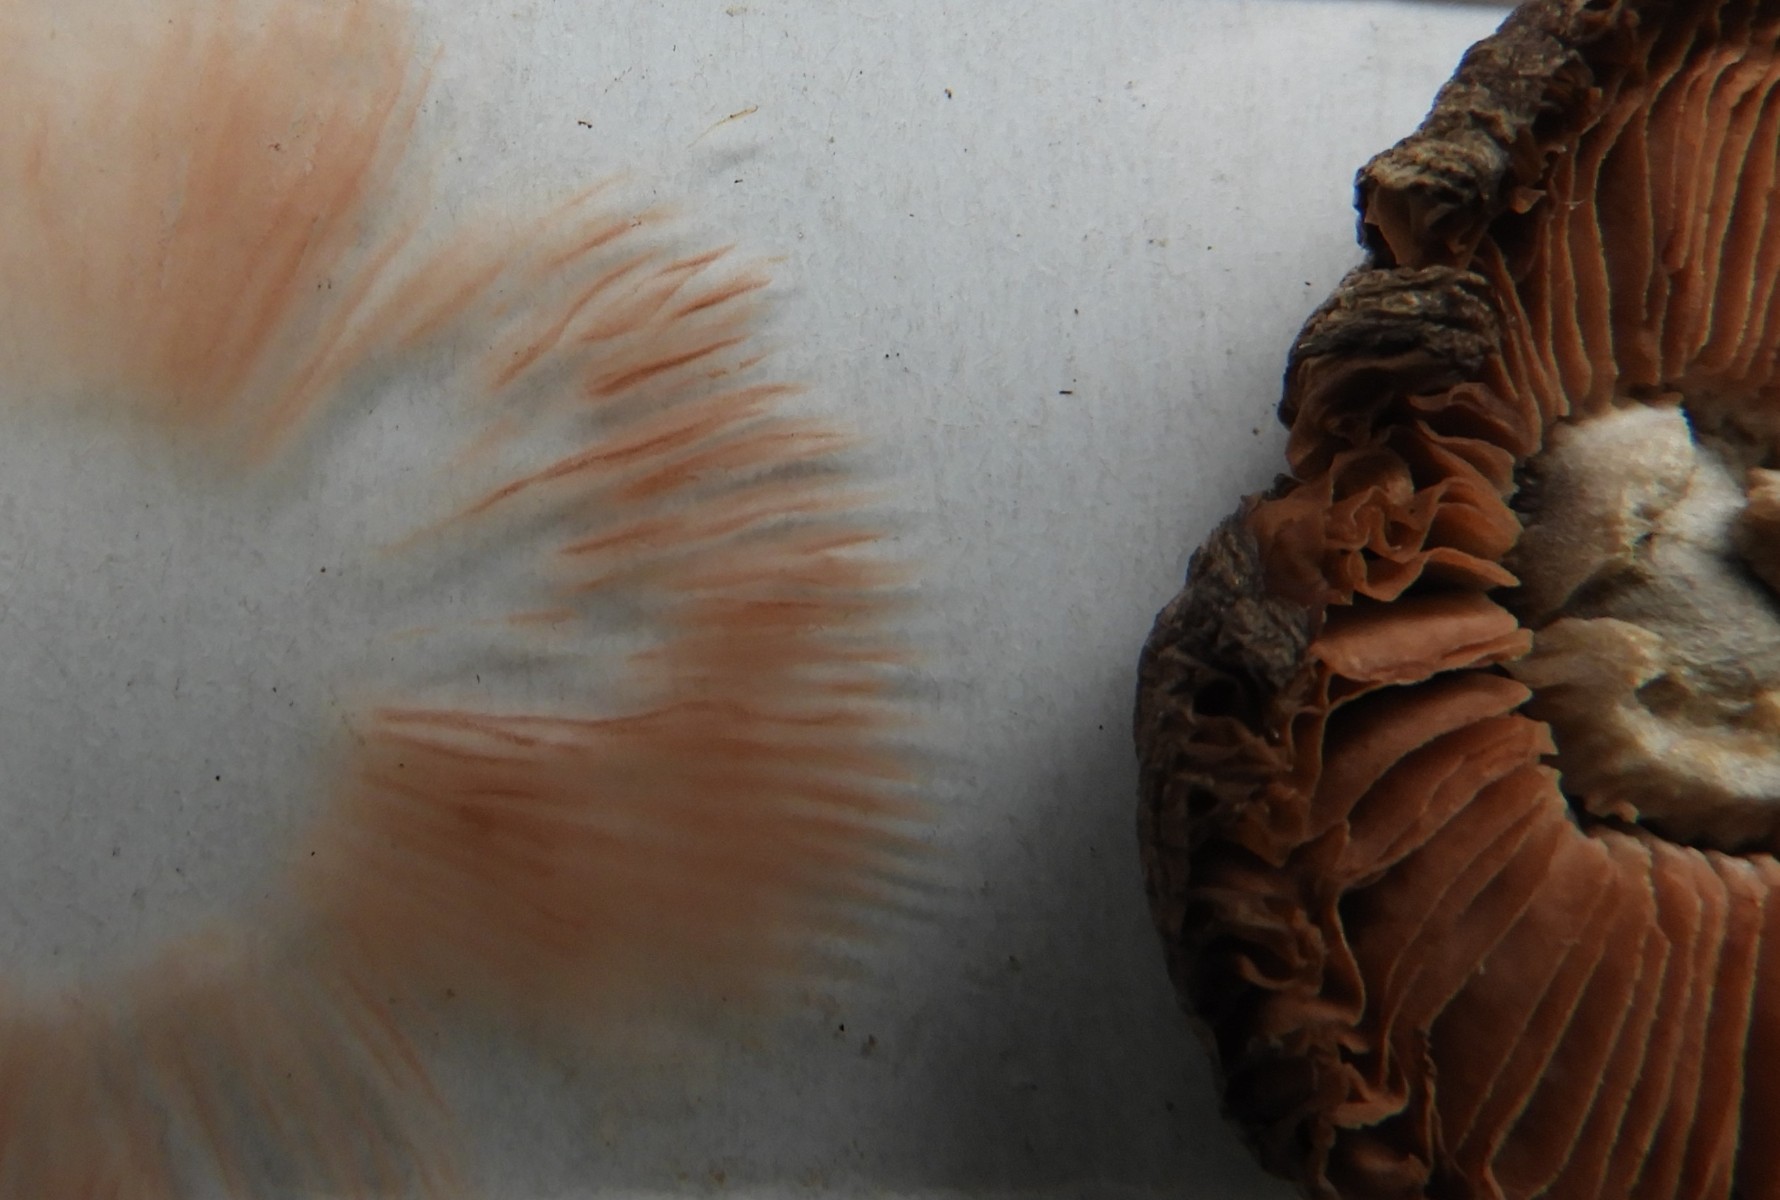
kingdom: Fungi
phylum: Basidiomycota
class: Agaricomycetes
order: Agaricales
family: Pluteaceae
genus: Volvopluteus
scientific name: Volvopluteus gloiocephalus
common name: høj posesvamp
